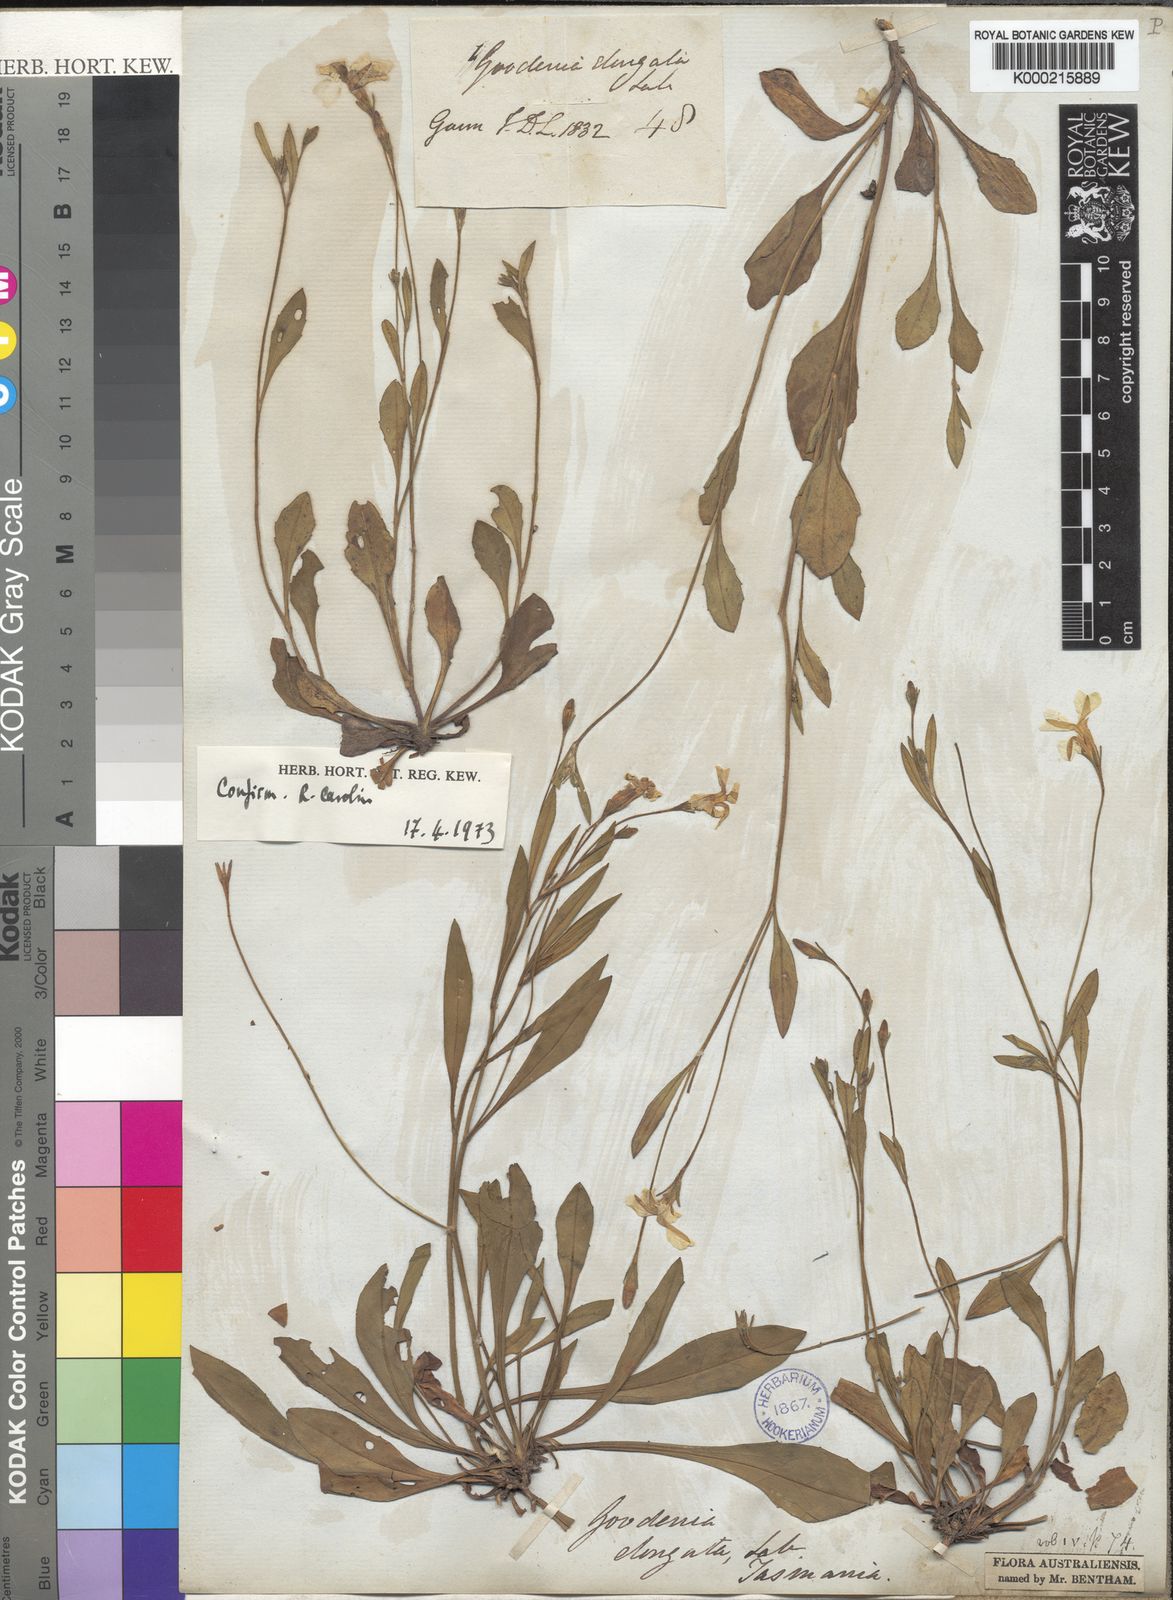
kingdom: Plantae
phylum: Tracheophyta
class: Magnoliopsida
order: Asterales
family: Goodeniaceae
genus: Goodenia
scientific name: Goodenia elongata
